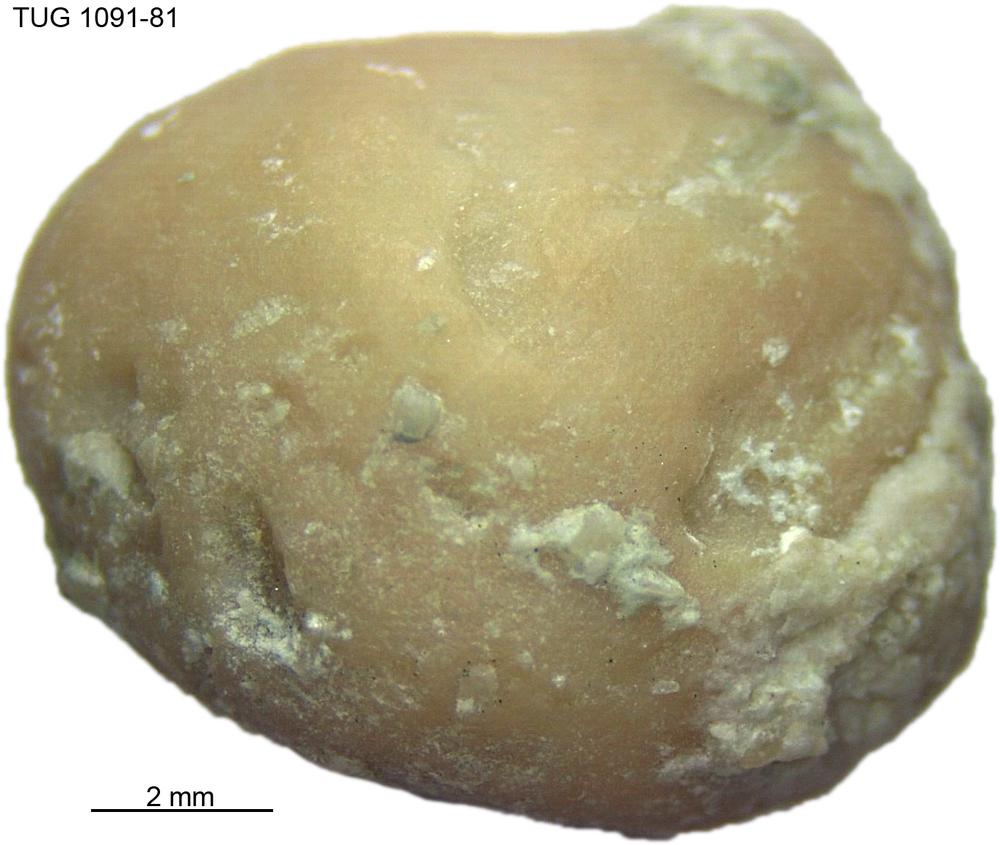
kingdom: Animalia
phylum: Porifera
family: Stromatoporidae
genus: Stromatopora
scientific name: Stromatopora
